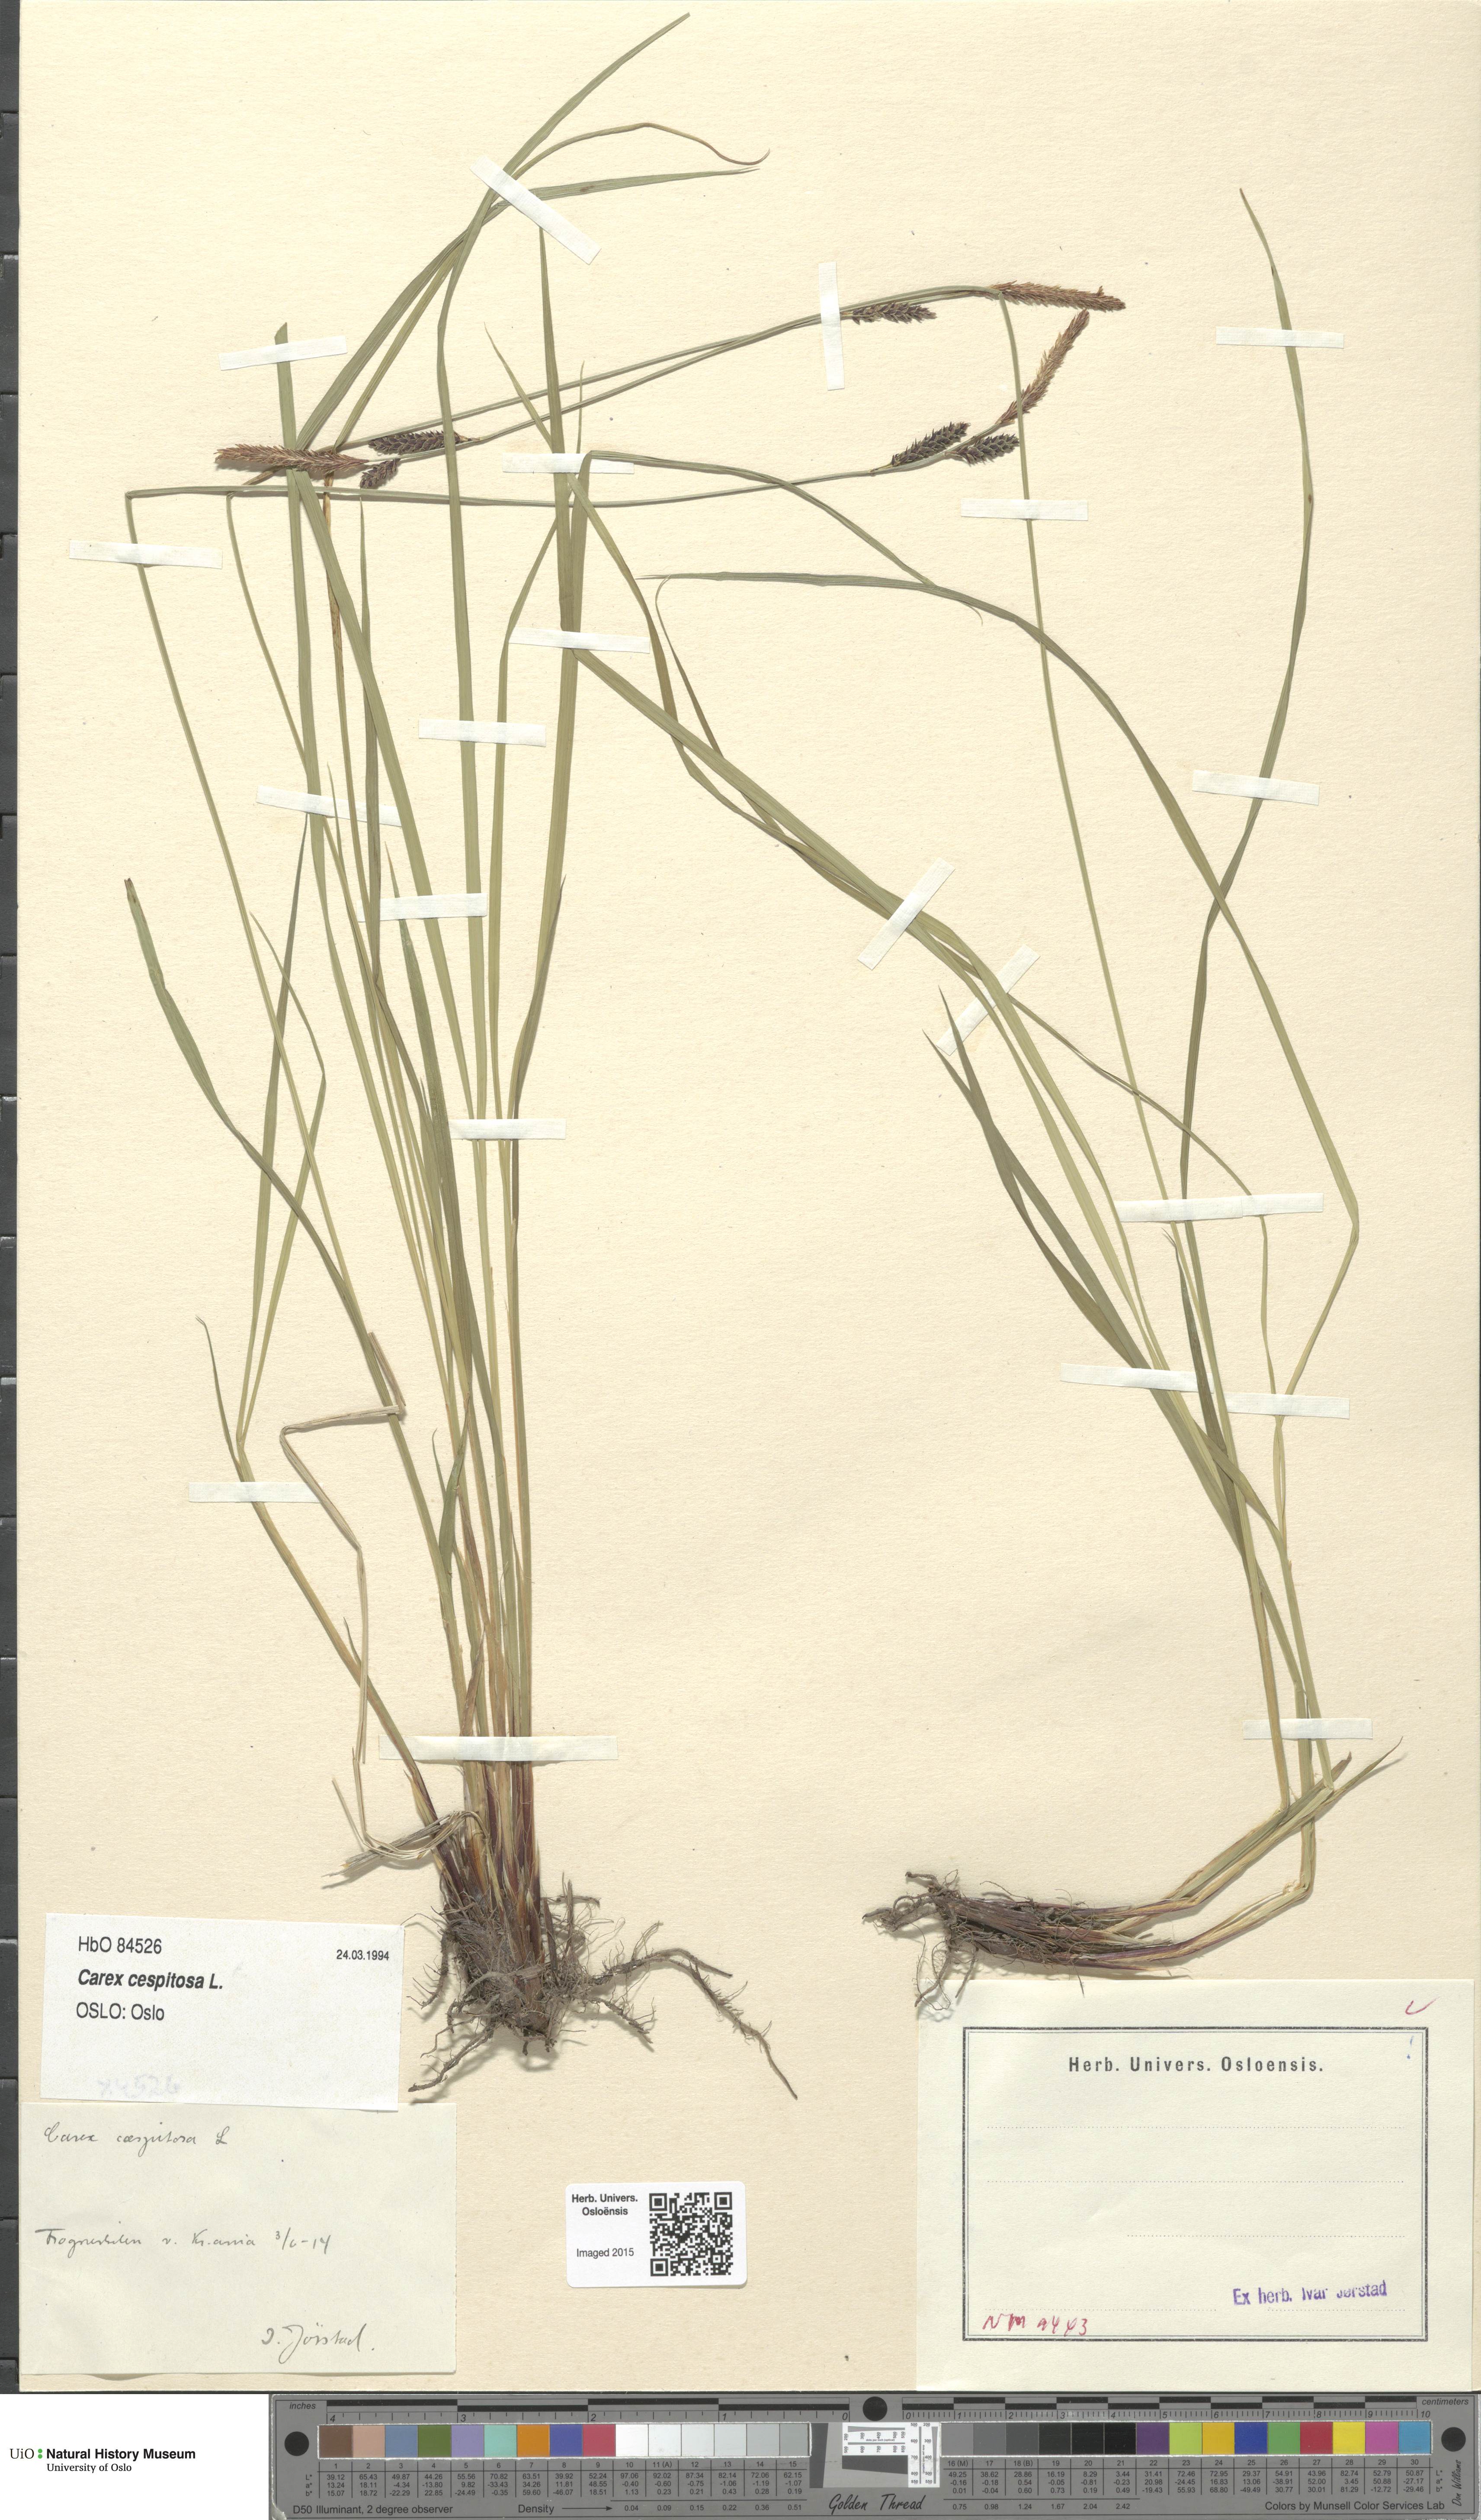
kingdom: Plantae
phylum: Tracheophyta
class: Liliopsida
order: Poales
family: Cyperaceae
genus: Carex
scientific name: Carex cespitosa
